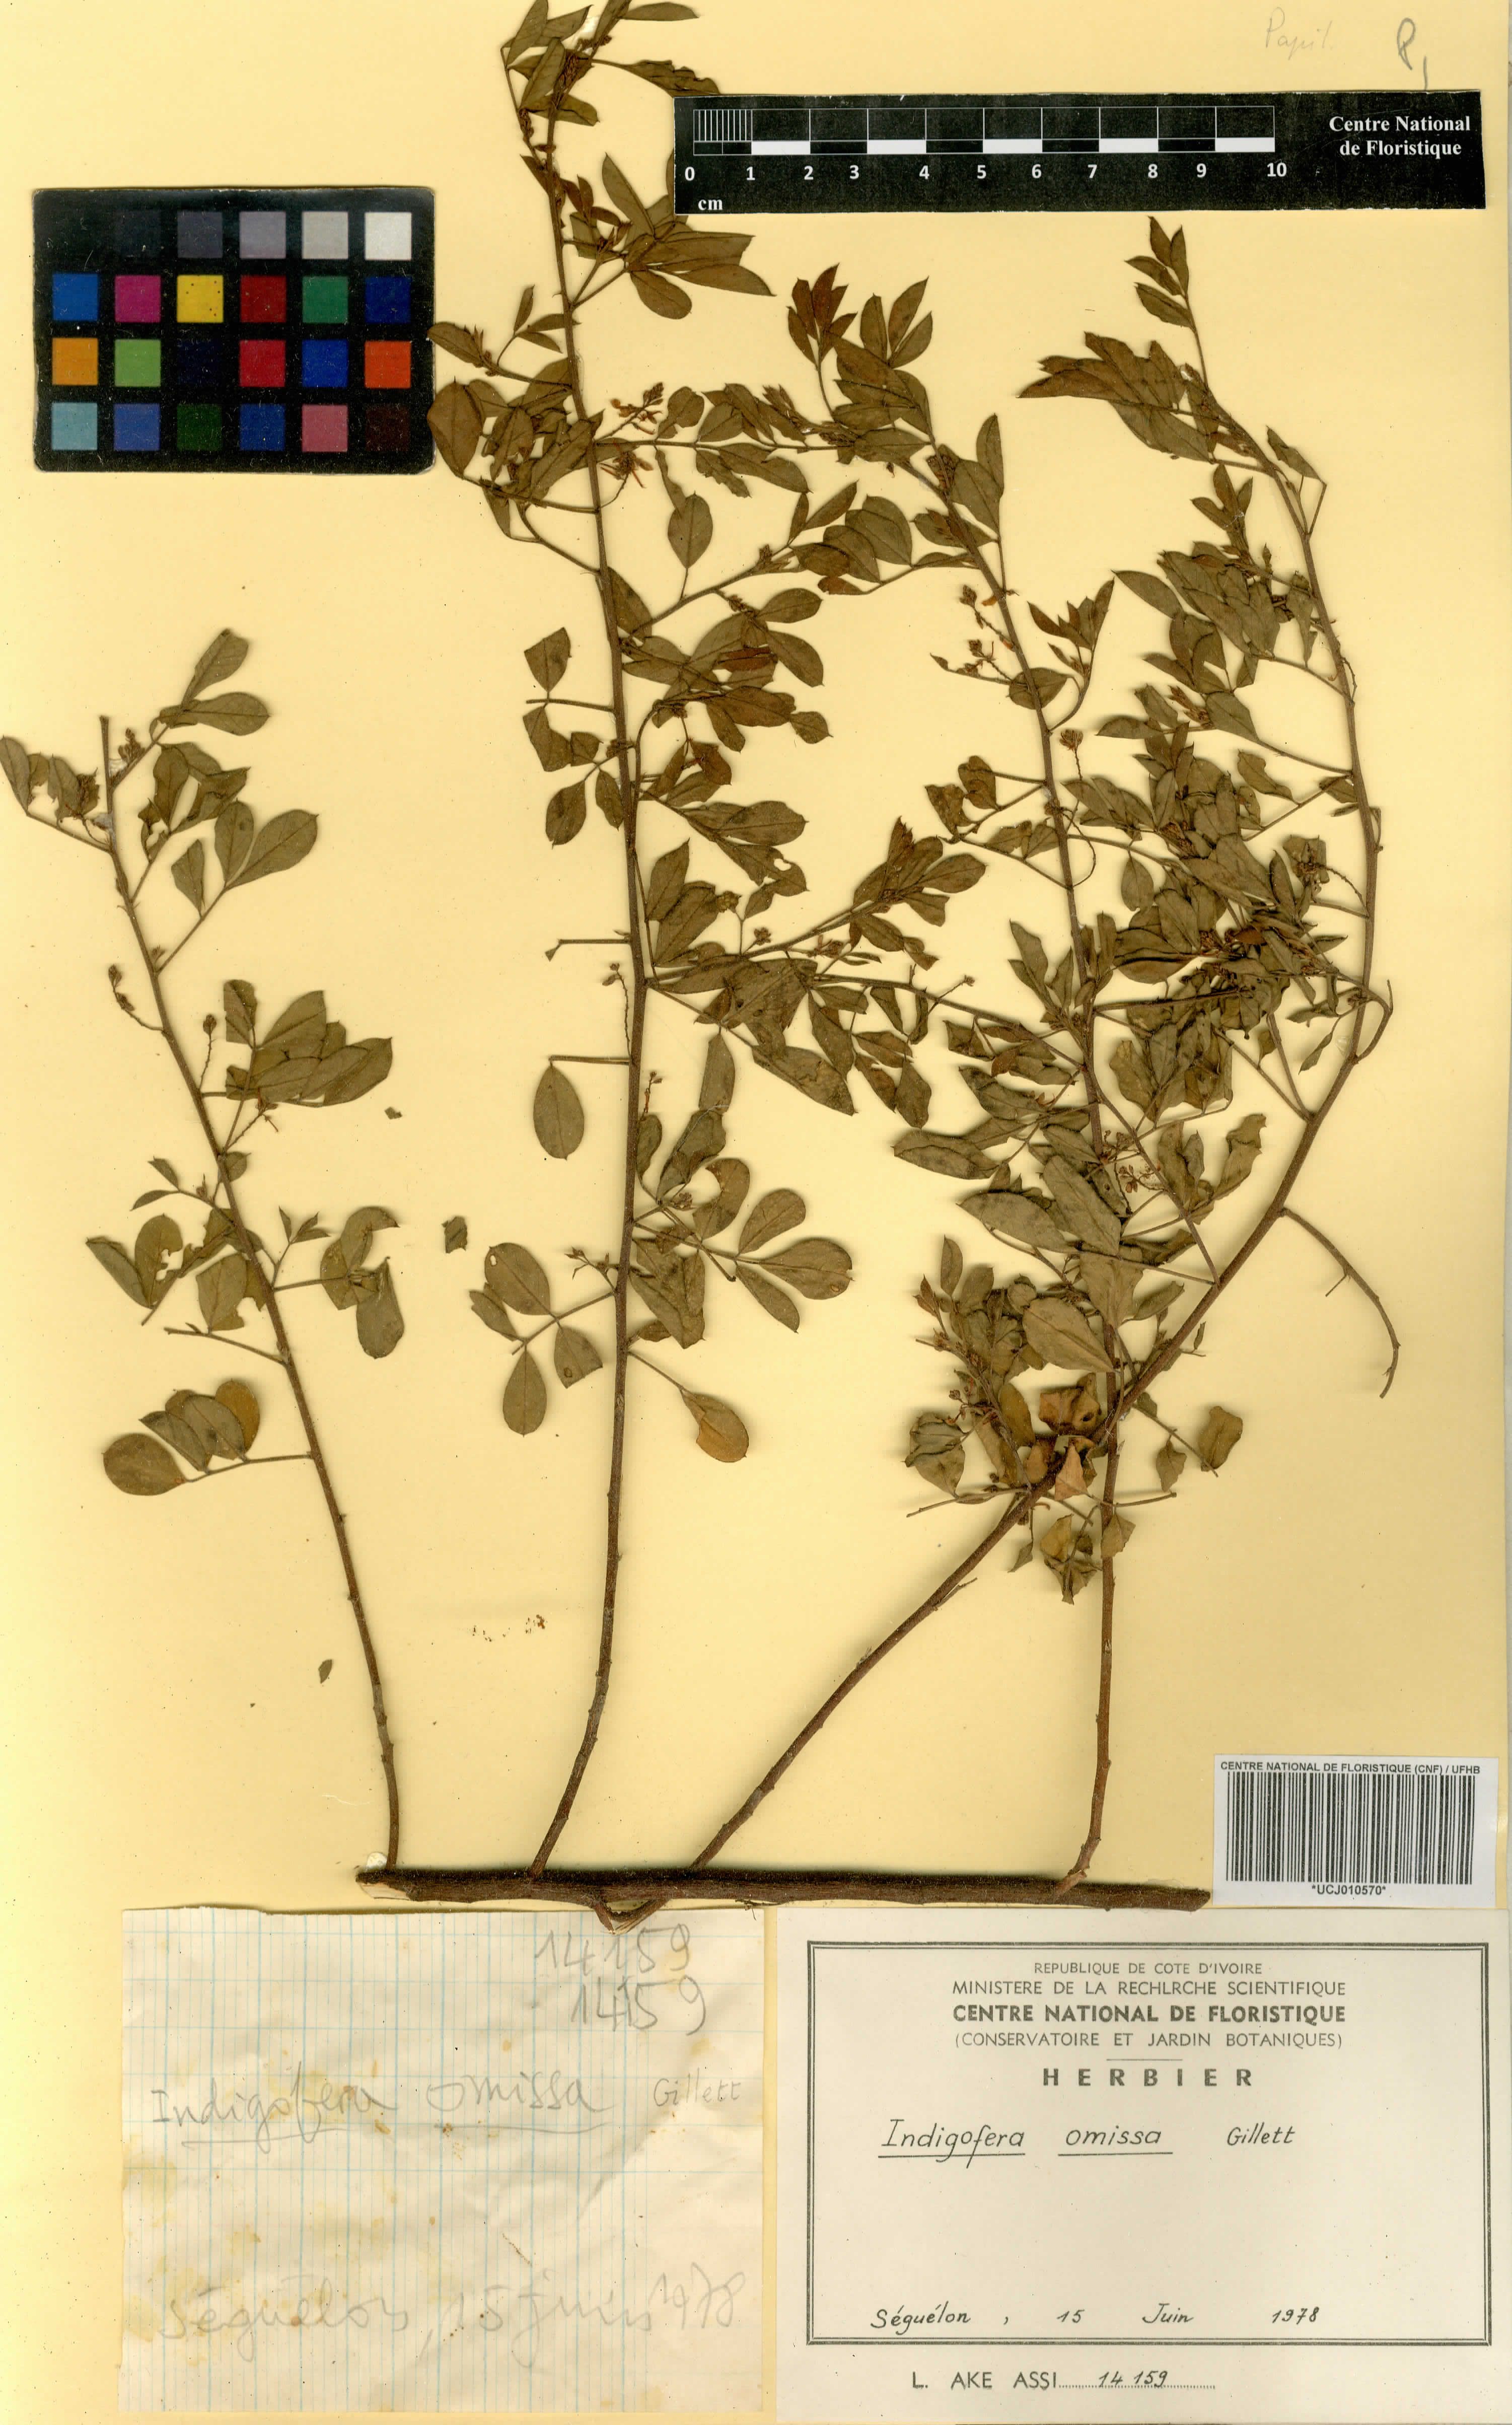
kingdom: Plantae
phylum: Tracheophyta
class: Magnoliopsida
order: Fabales
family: Fabaceae
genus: Indigofera
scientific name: Indigofera omissa
